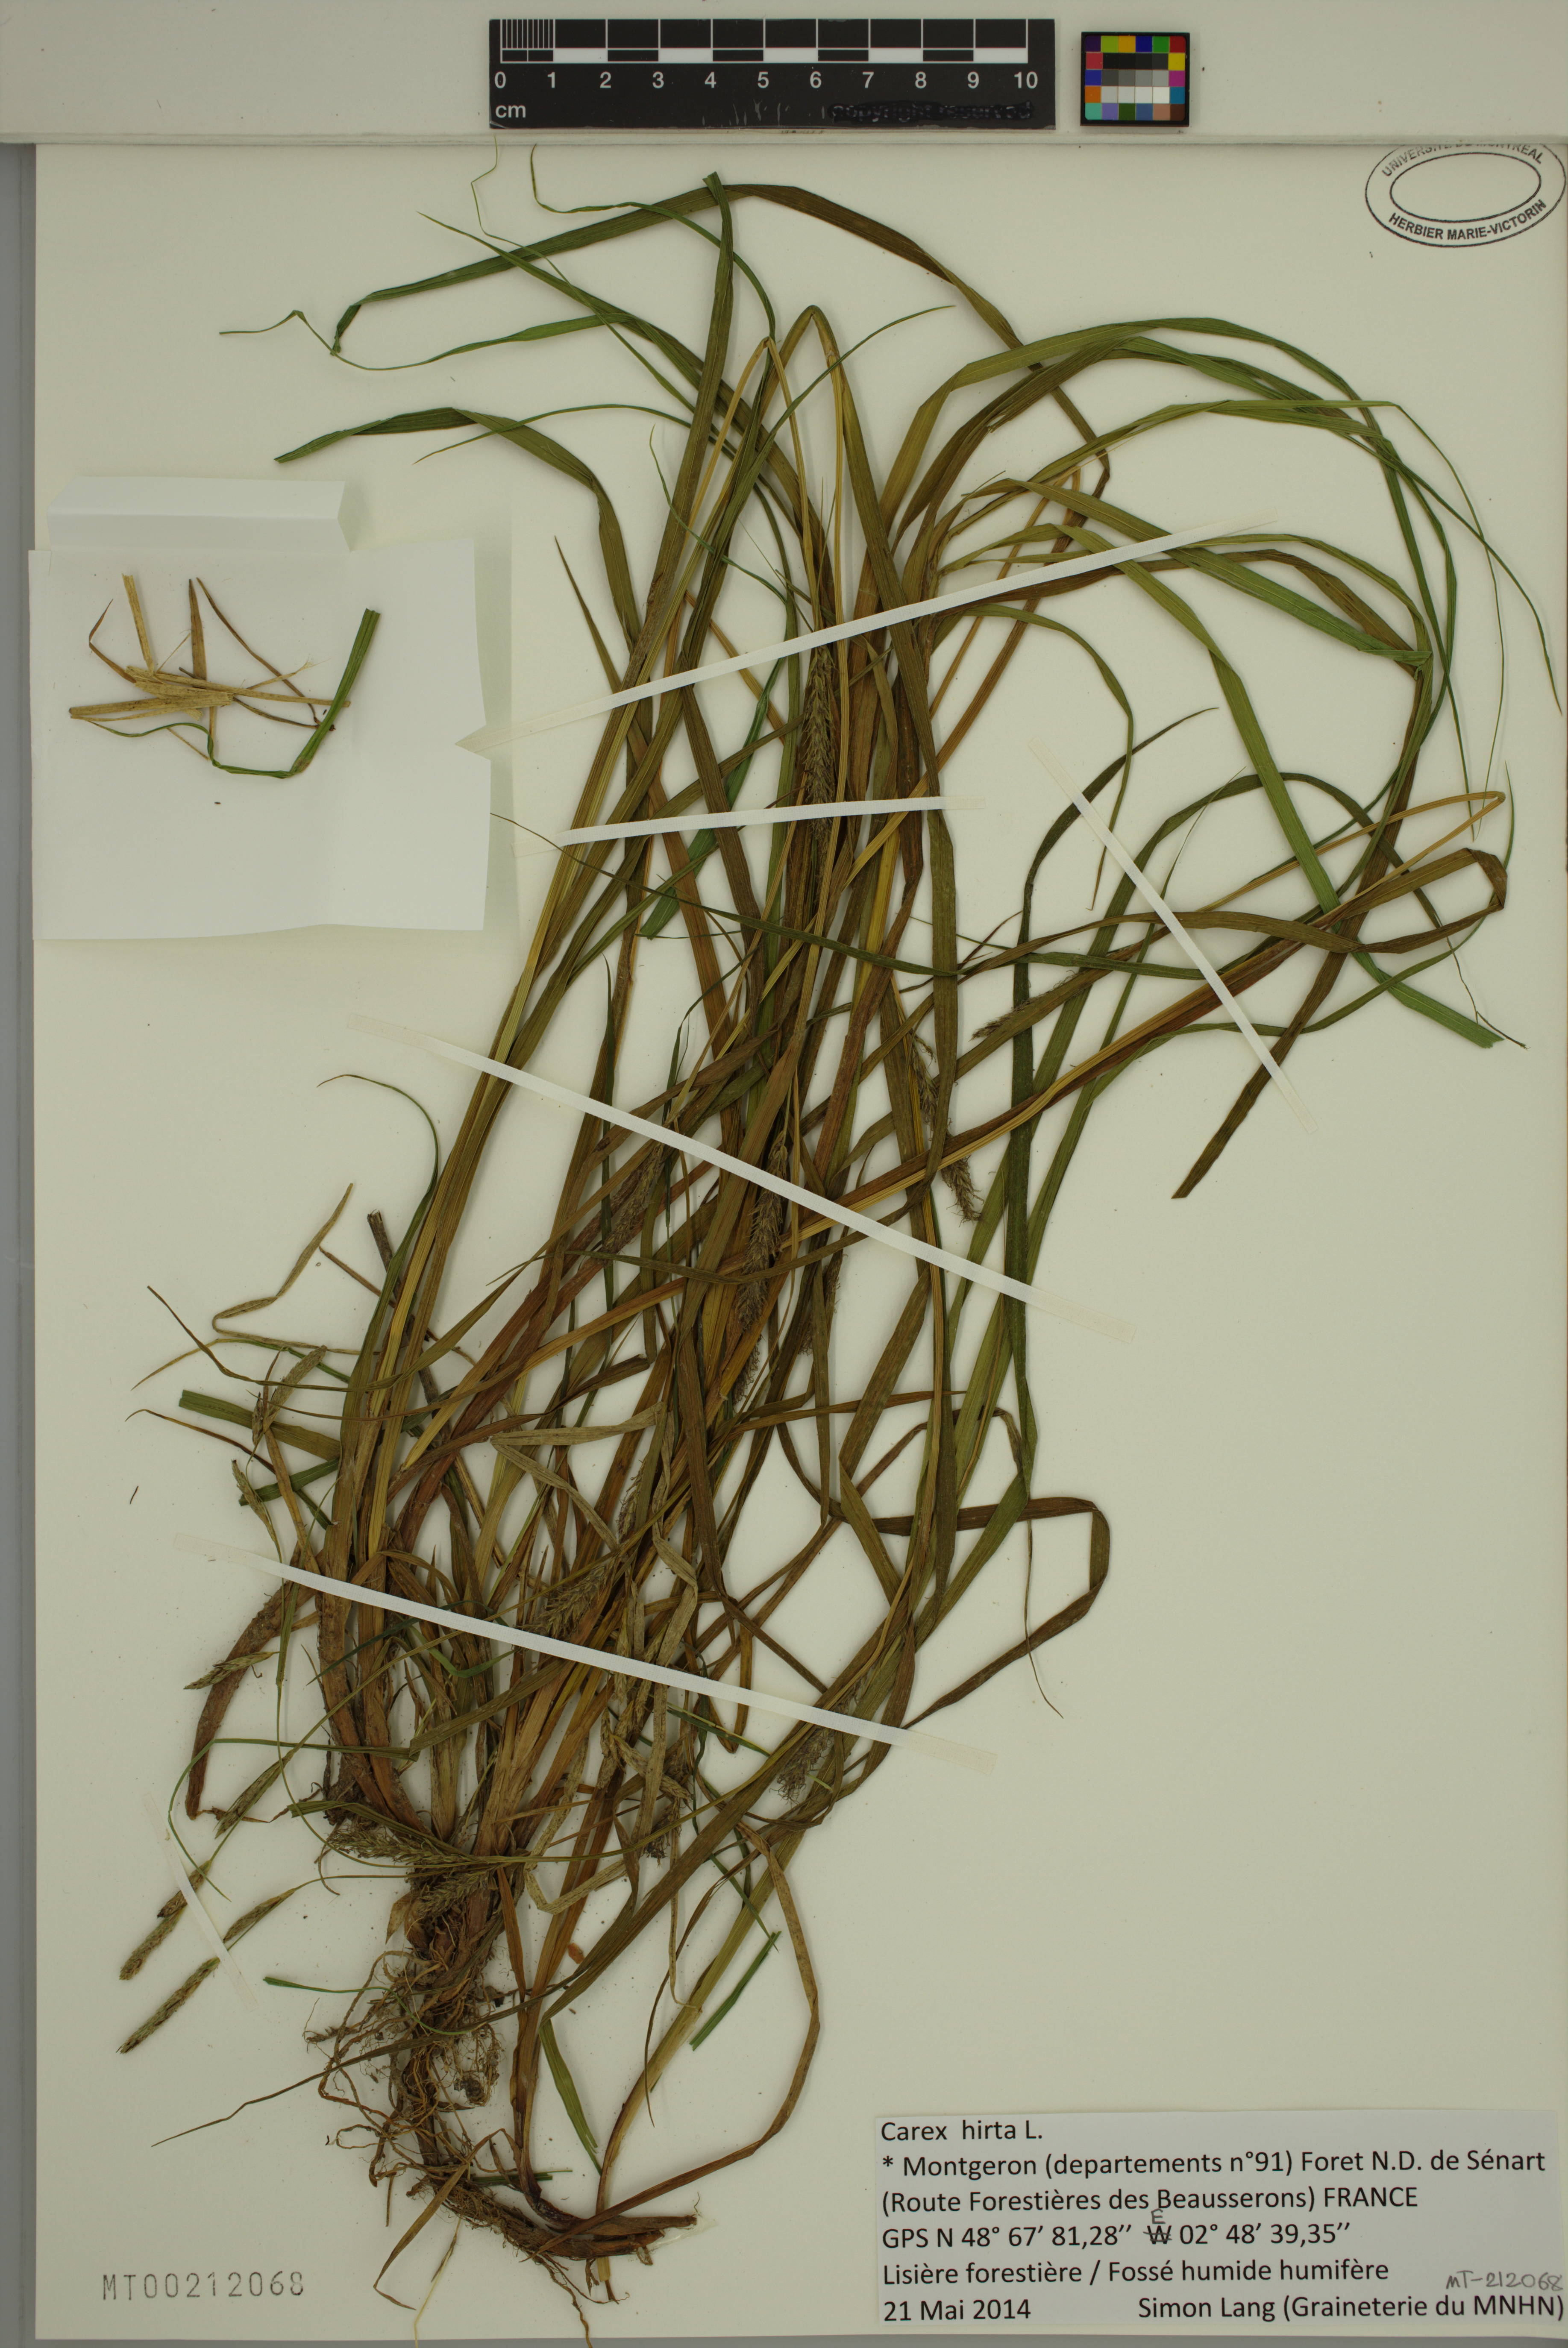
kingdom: Plantae
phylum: Tracheophyta
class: Liliopsida
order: Poales
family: Cyperaceae
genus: Carex
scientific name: Carex hirta
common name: Hairy sedge
